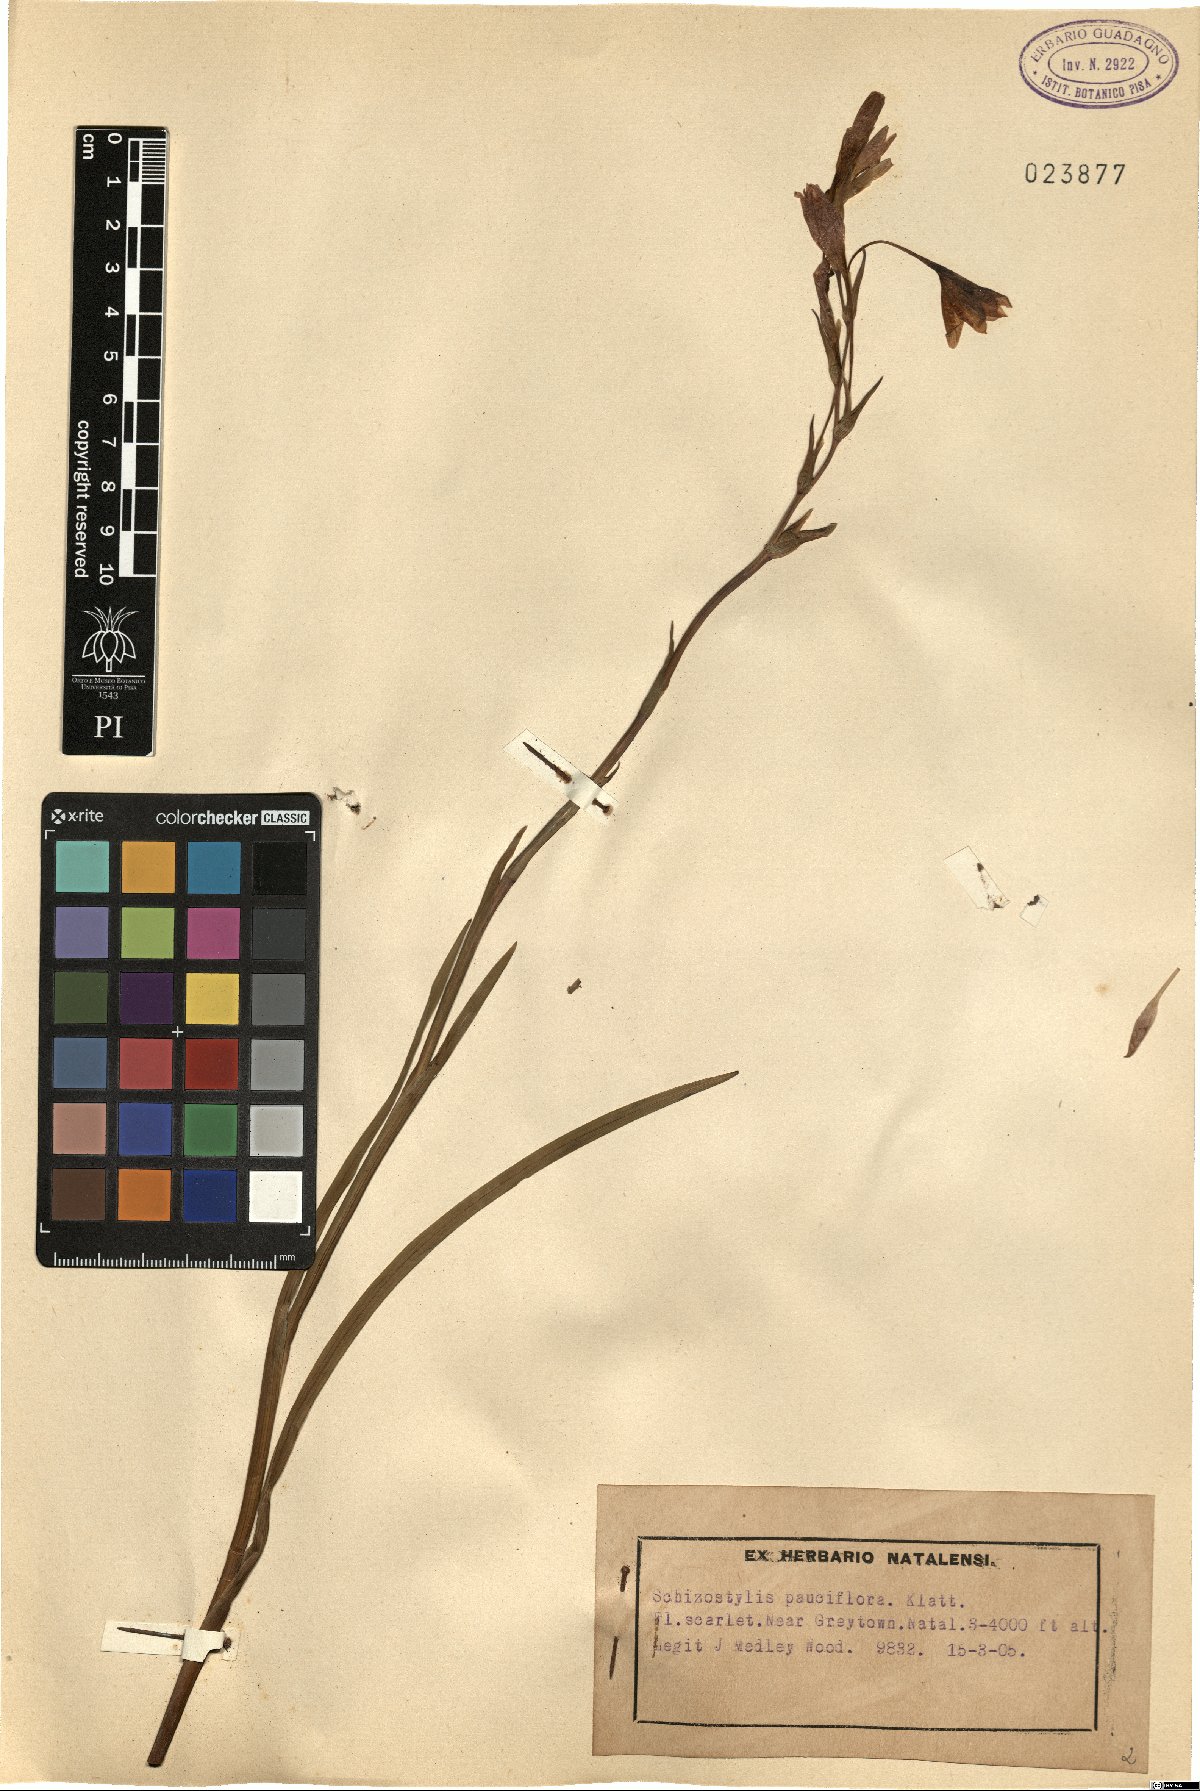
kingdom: Plantae
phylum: Tracheophyta
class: Liliopsida
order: Asparagales
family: Iridaceae
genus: Hesperantha
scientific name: Hesperantha coccinea
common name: River-lily
